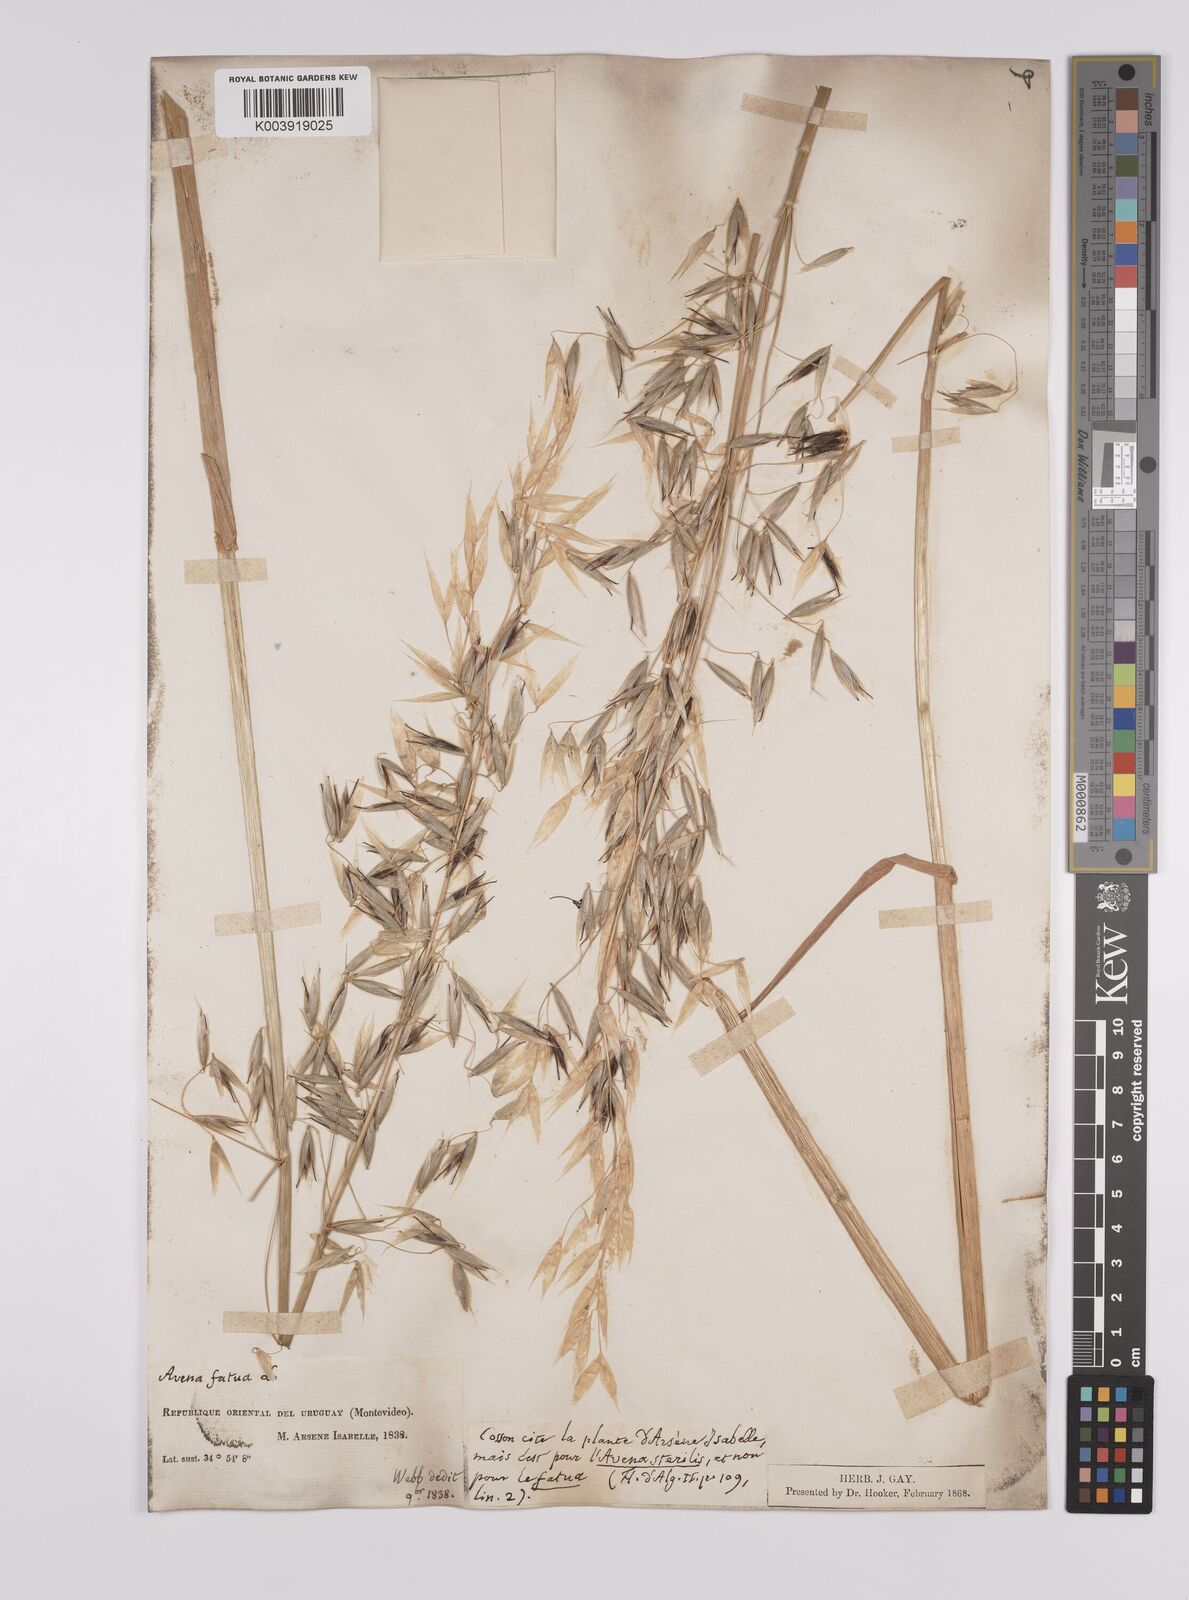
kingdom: Plantae
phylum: Tracheophyta
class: Liliopsida
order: Poales
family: Poaceae
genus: Avena
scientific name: Avena fatua
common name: Wild oat
